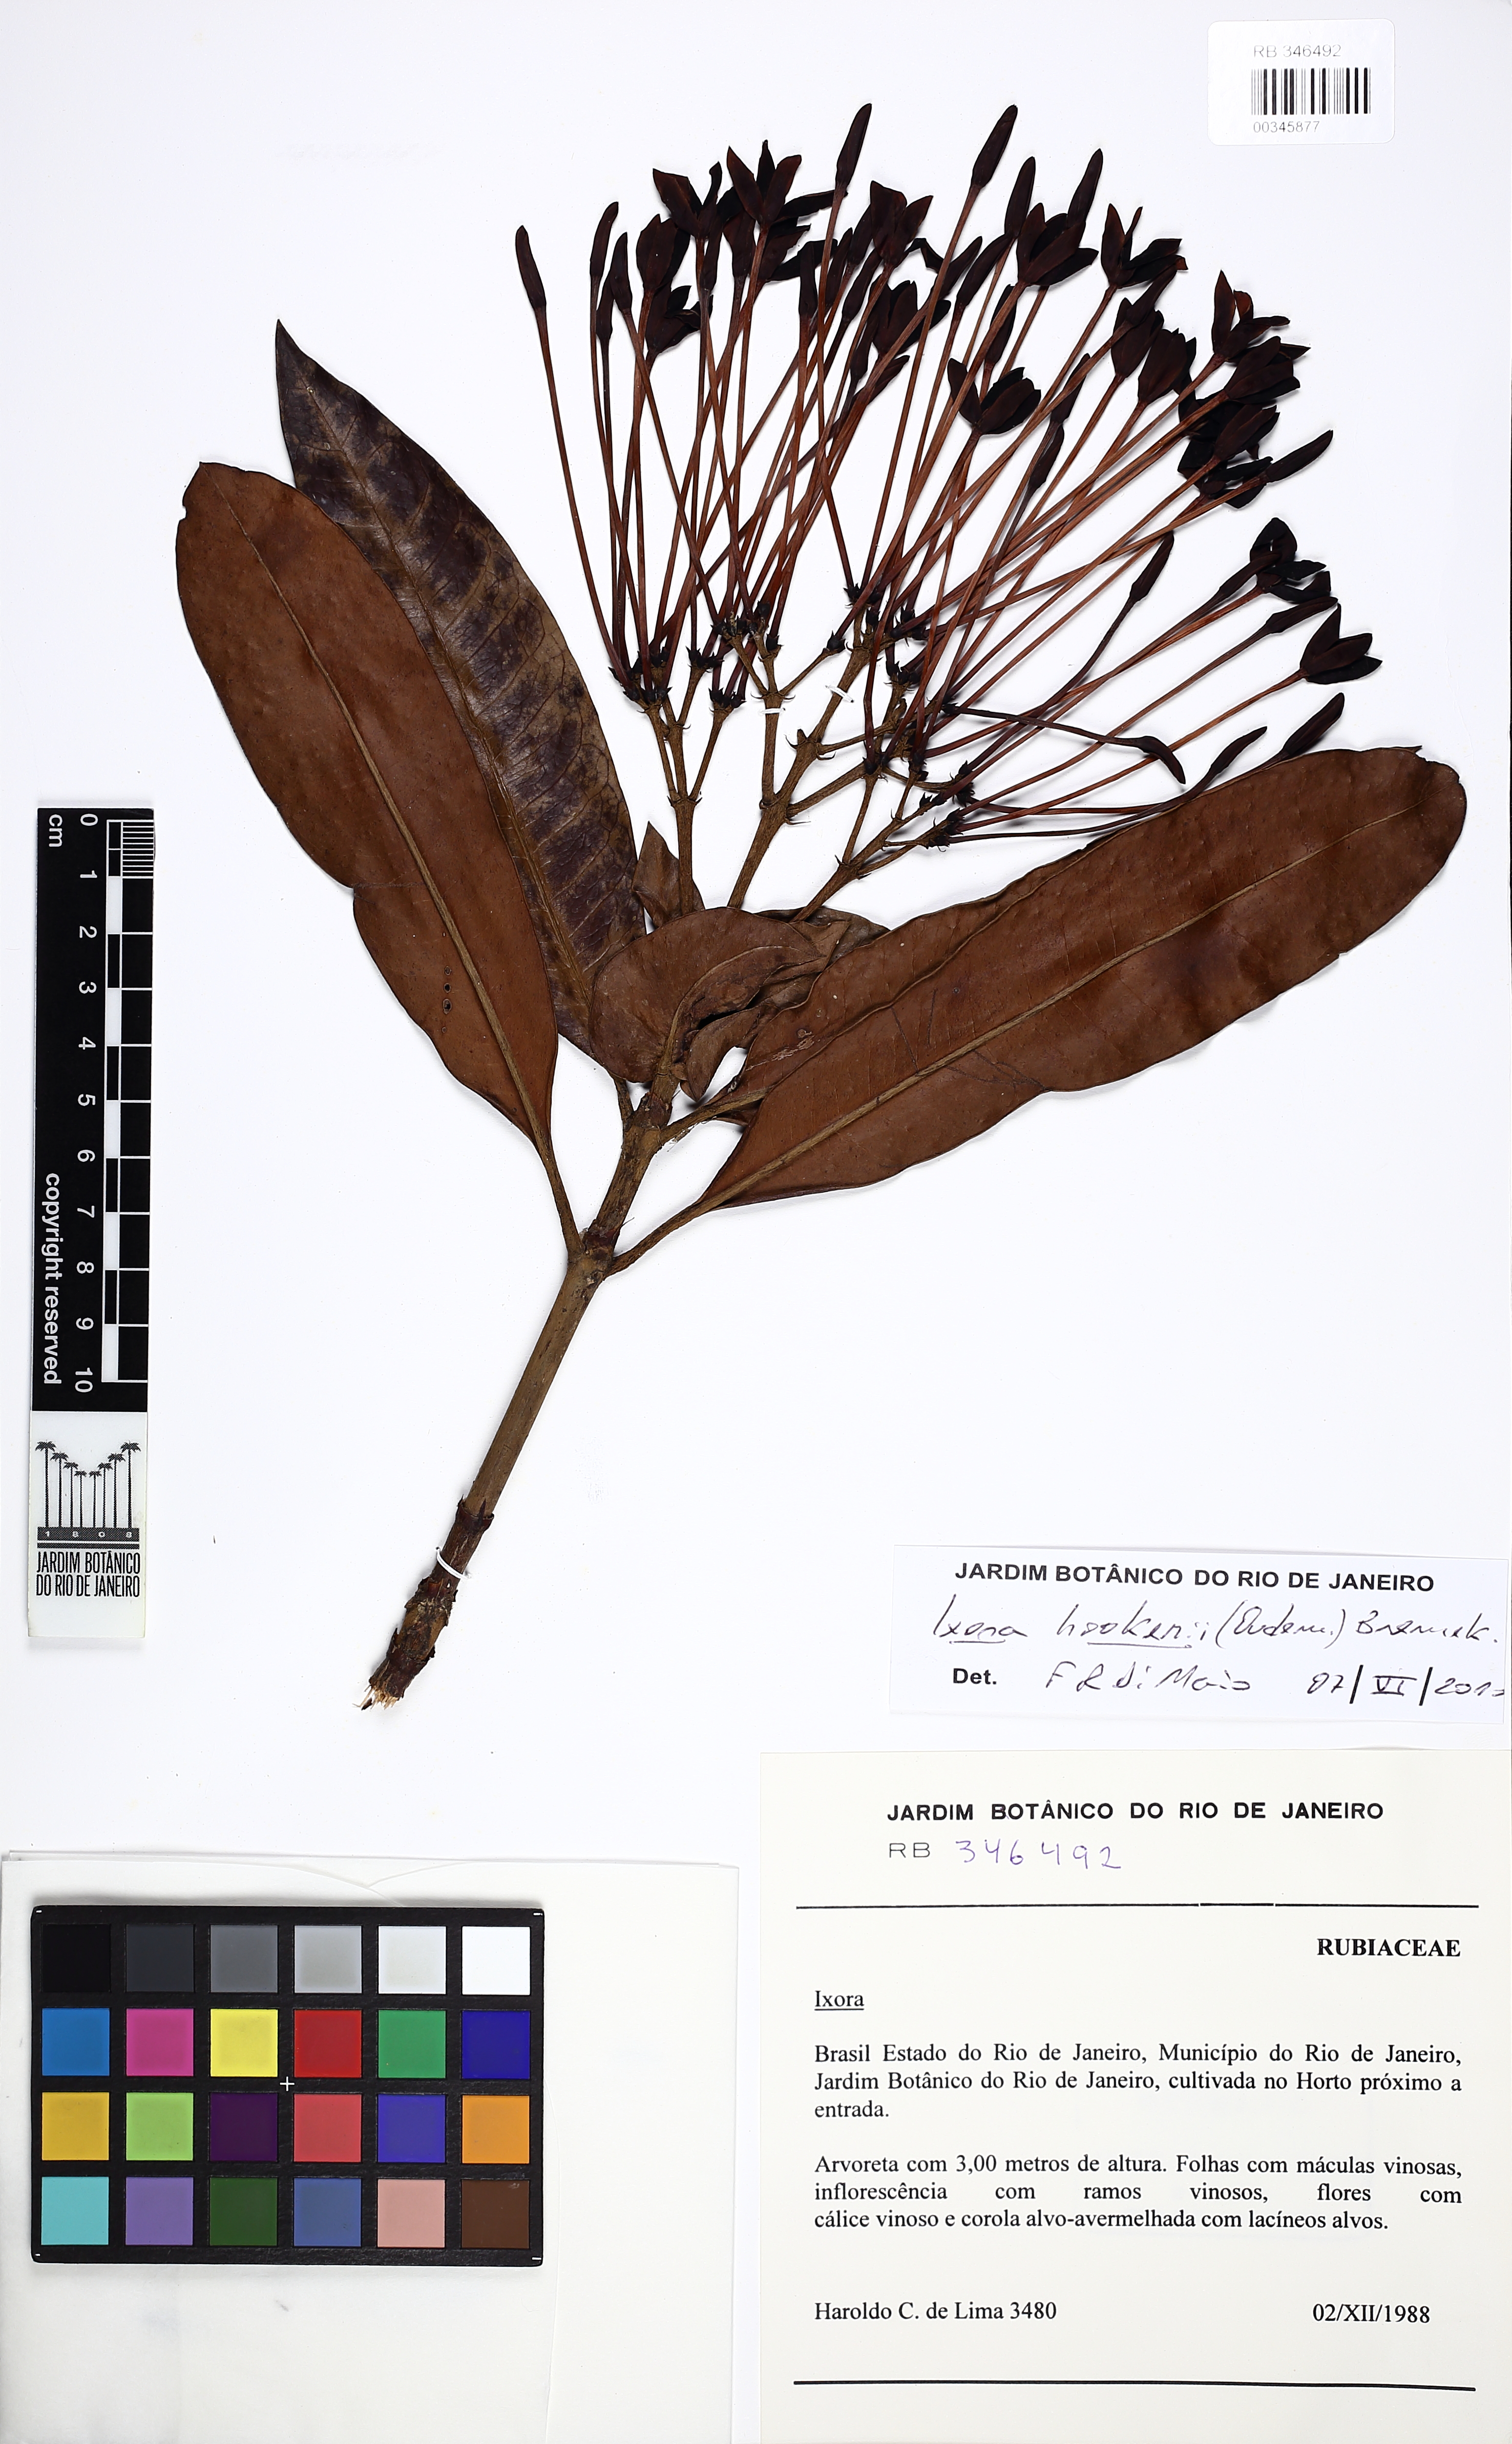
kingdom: Plantae
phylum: Tracheophyta
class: Magnoliopsida
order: Gentianales
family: Rubiaceae
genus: Ixora
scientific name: Ixora hookeri
